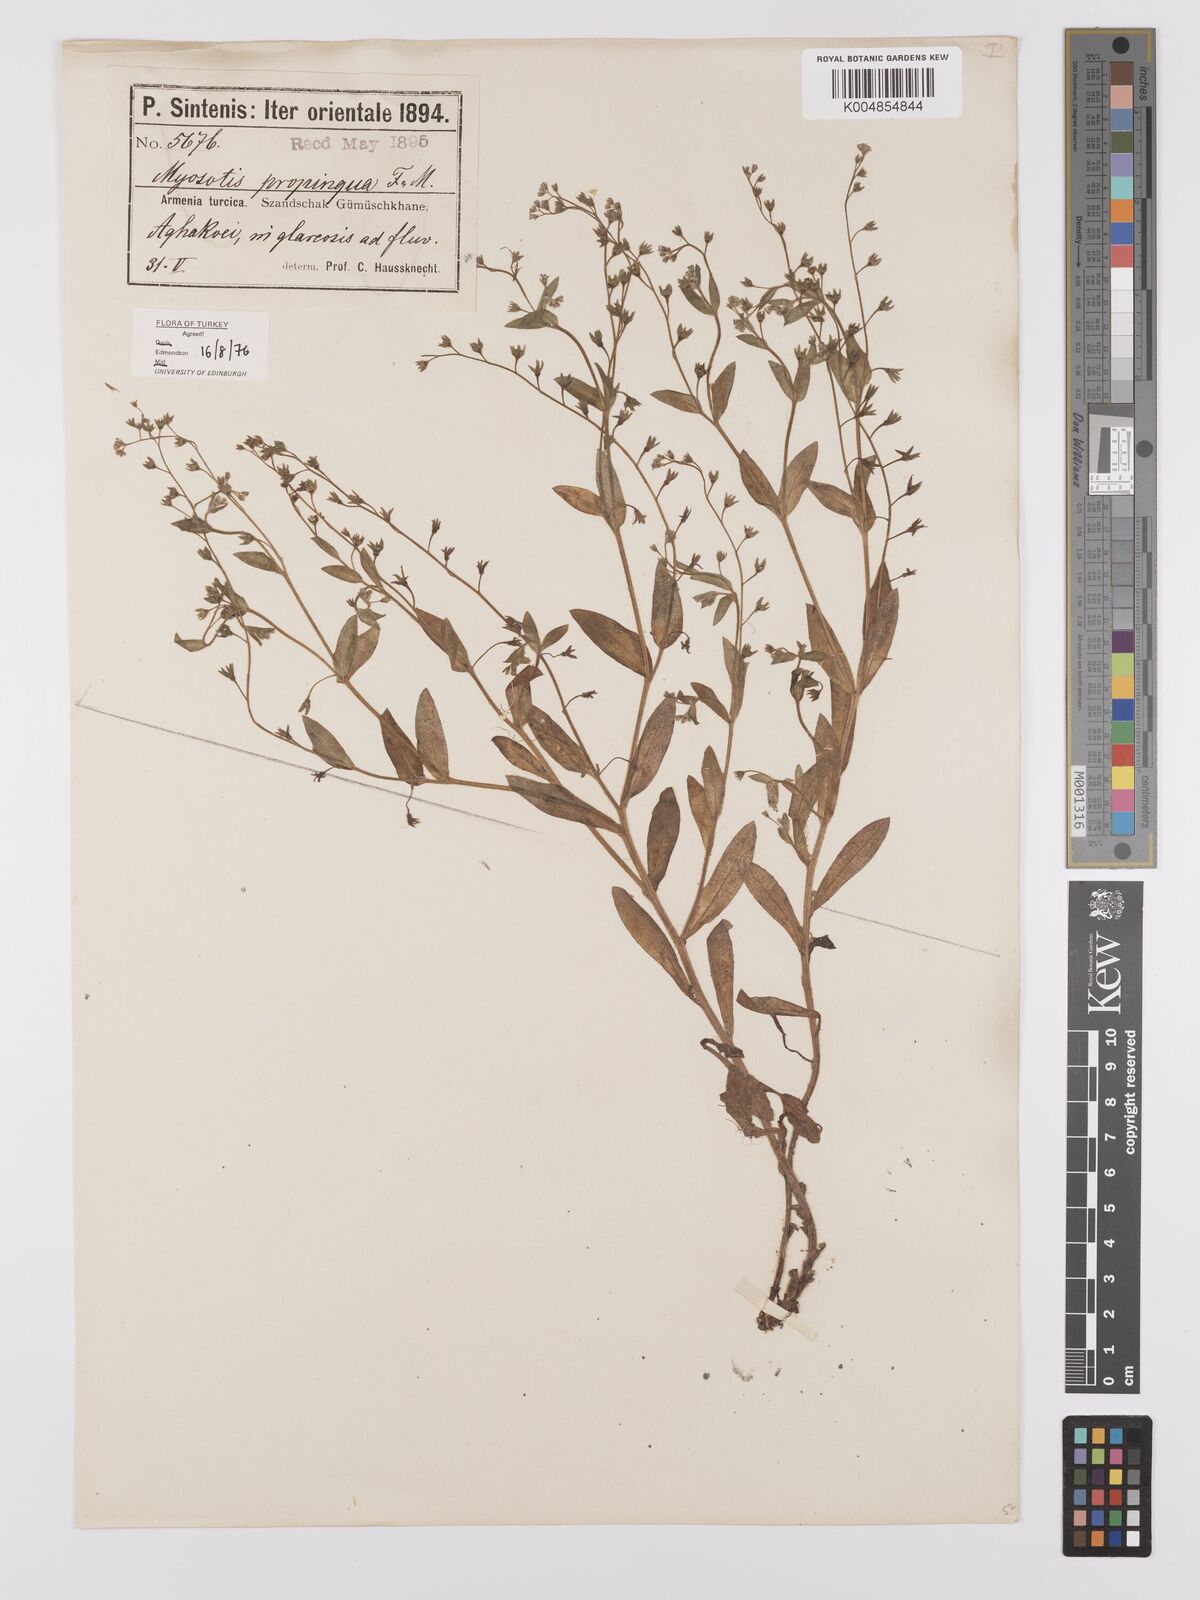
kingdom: Plantae
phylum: Tracheophyta
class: Magnoliopsida
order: Boraginales
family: Boraginaceae
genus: Myosotis
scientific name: Myosotis propinqua
